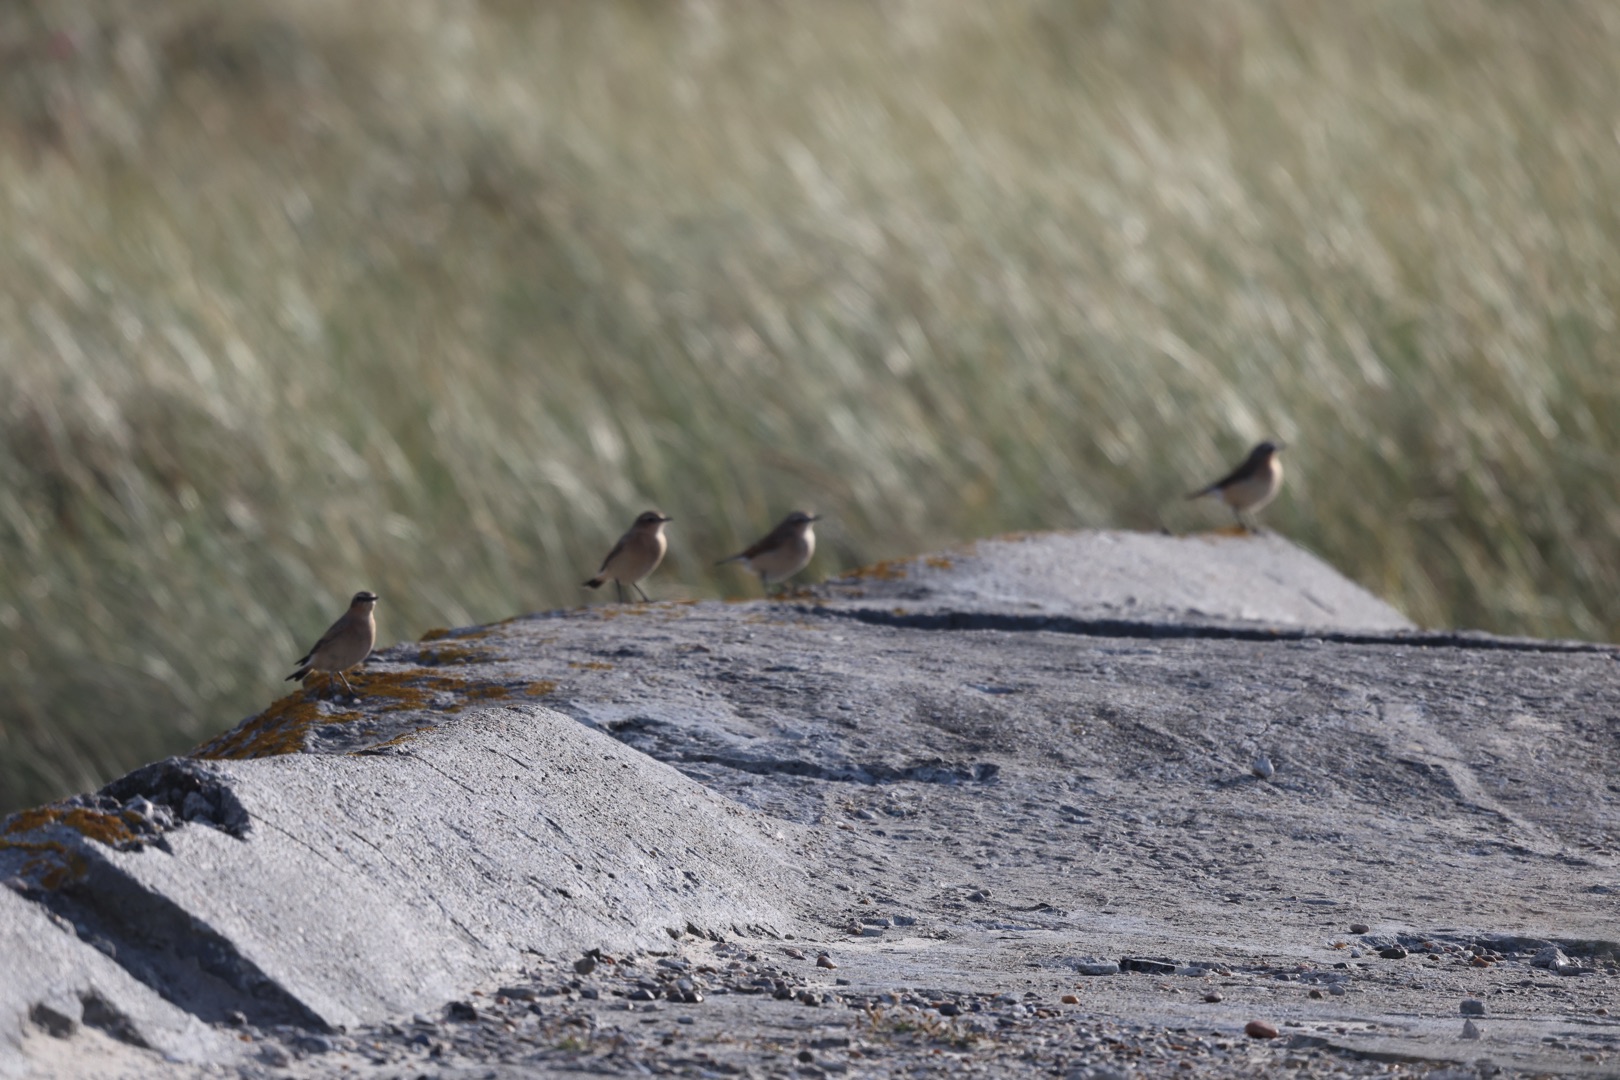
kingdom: Animalia
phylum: Chordata
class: Aves
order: Passeriformes
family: Muscicapidae
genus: Oenanthe
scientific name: Oenanthe oenanthe
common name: Stenpikker
